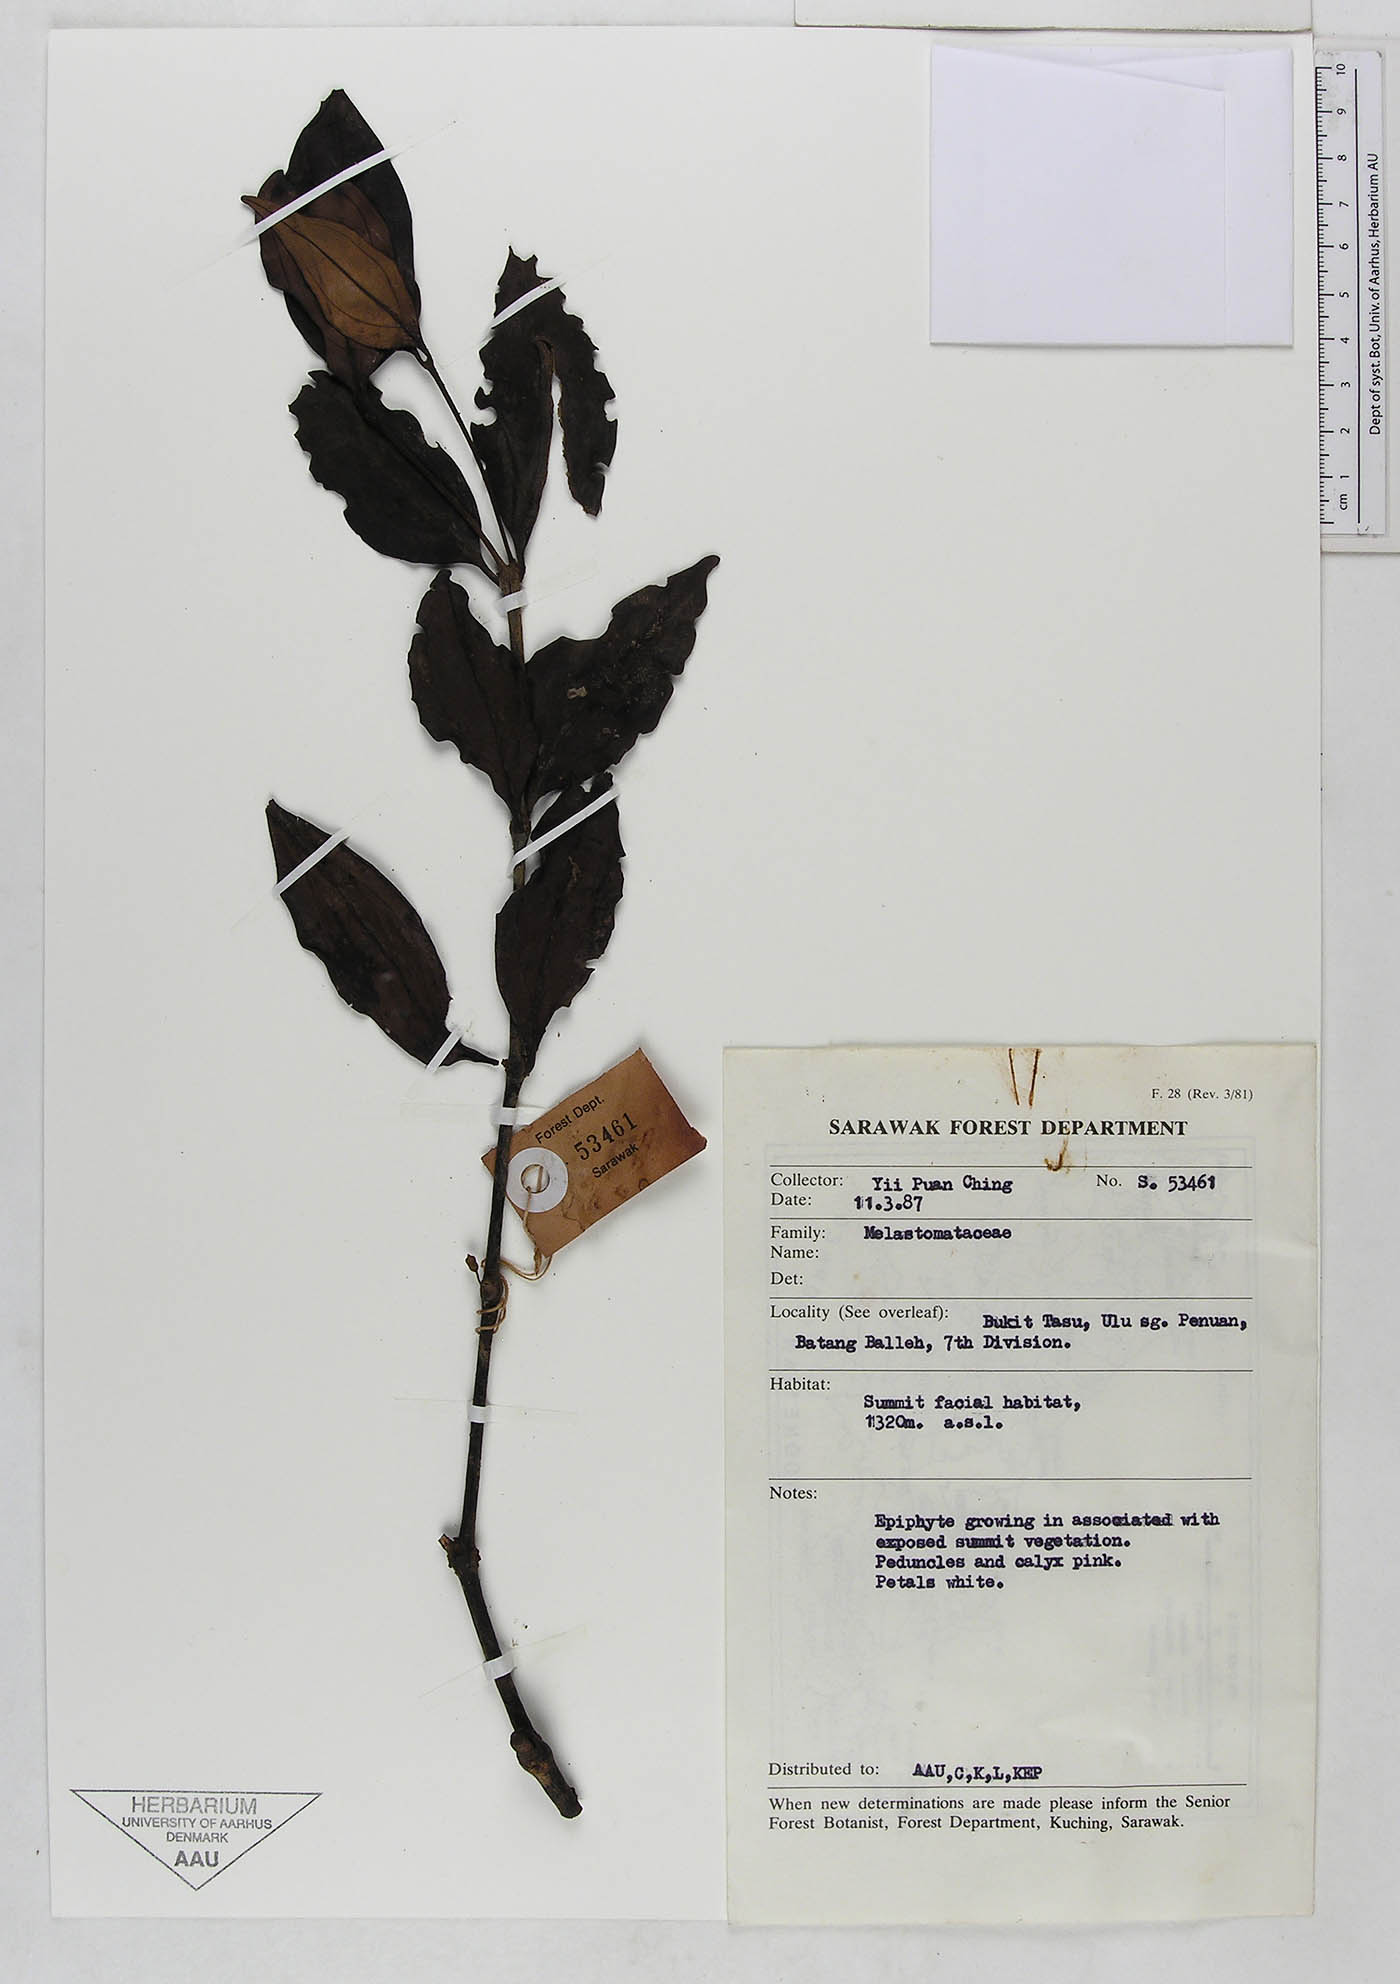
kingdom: Plantae
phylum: Tracheophyta
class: Magnoliopsida
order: Myrtales
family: Melastomataceae
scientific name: Melastomataceae
